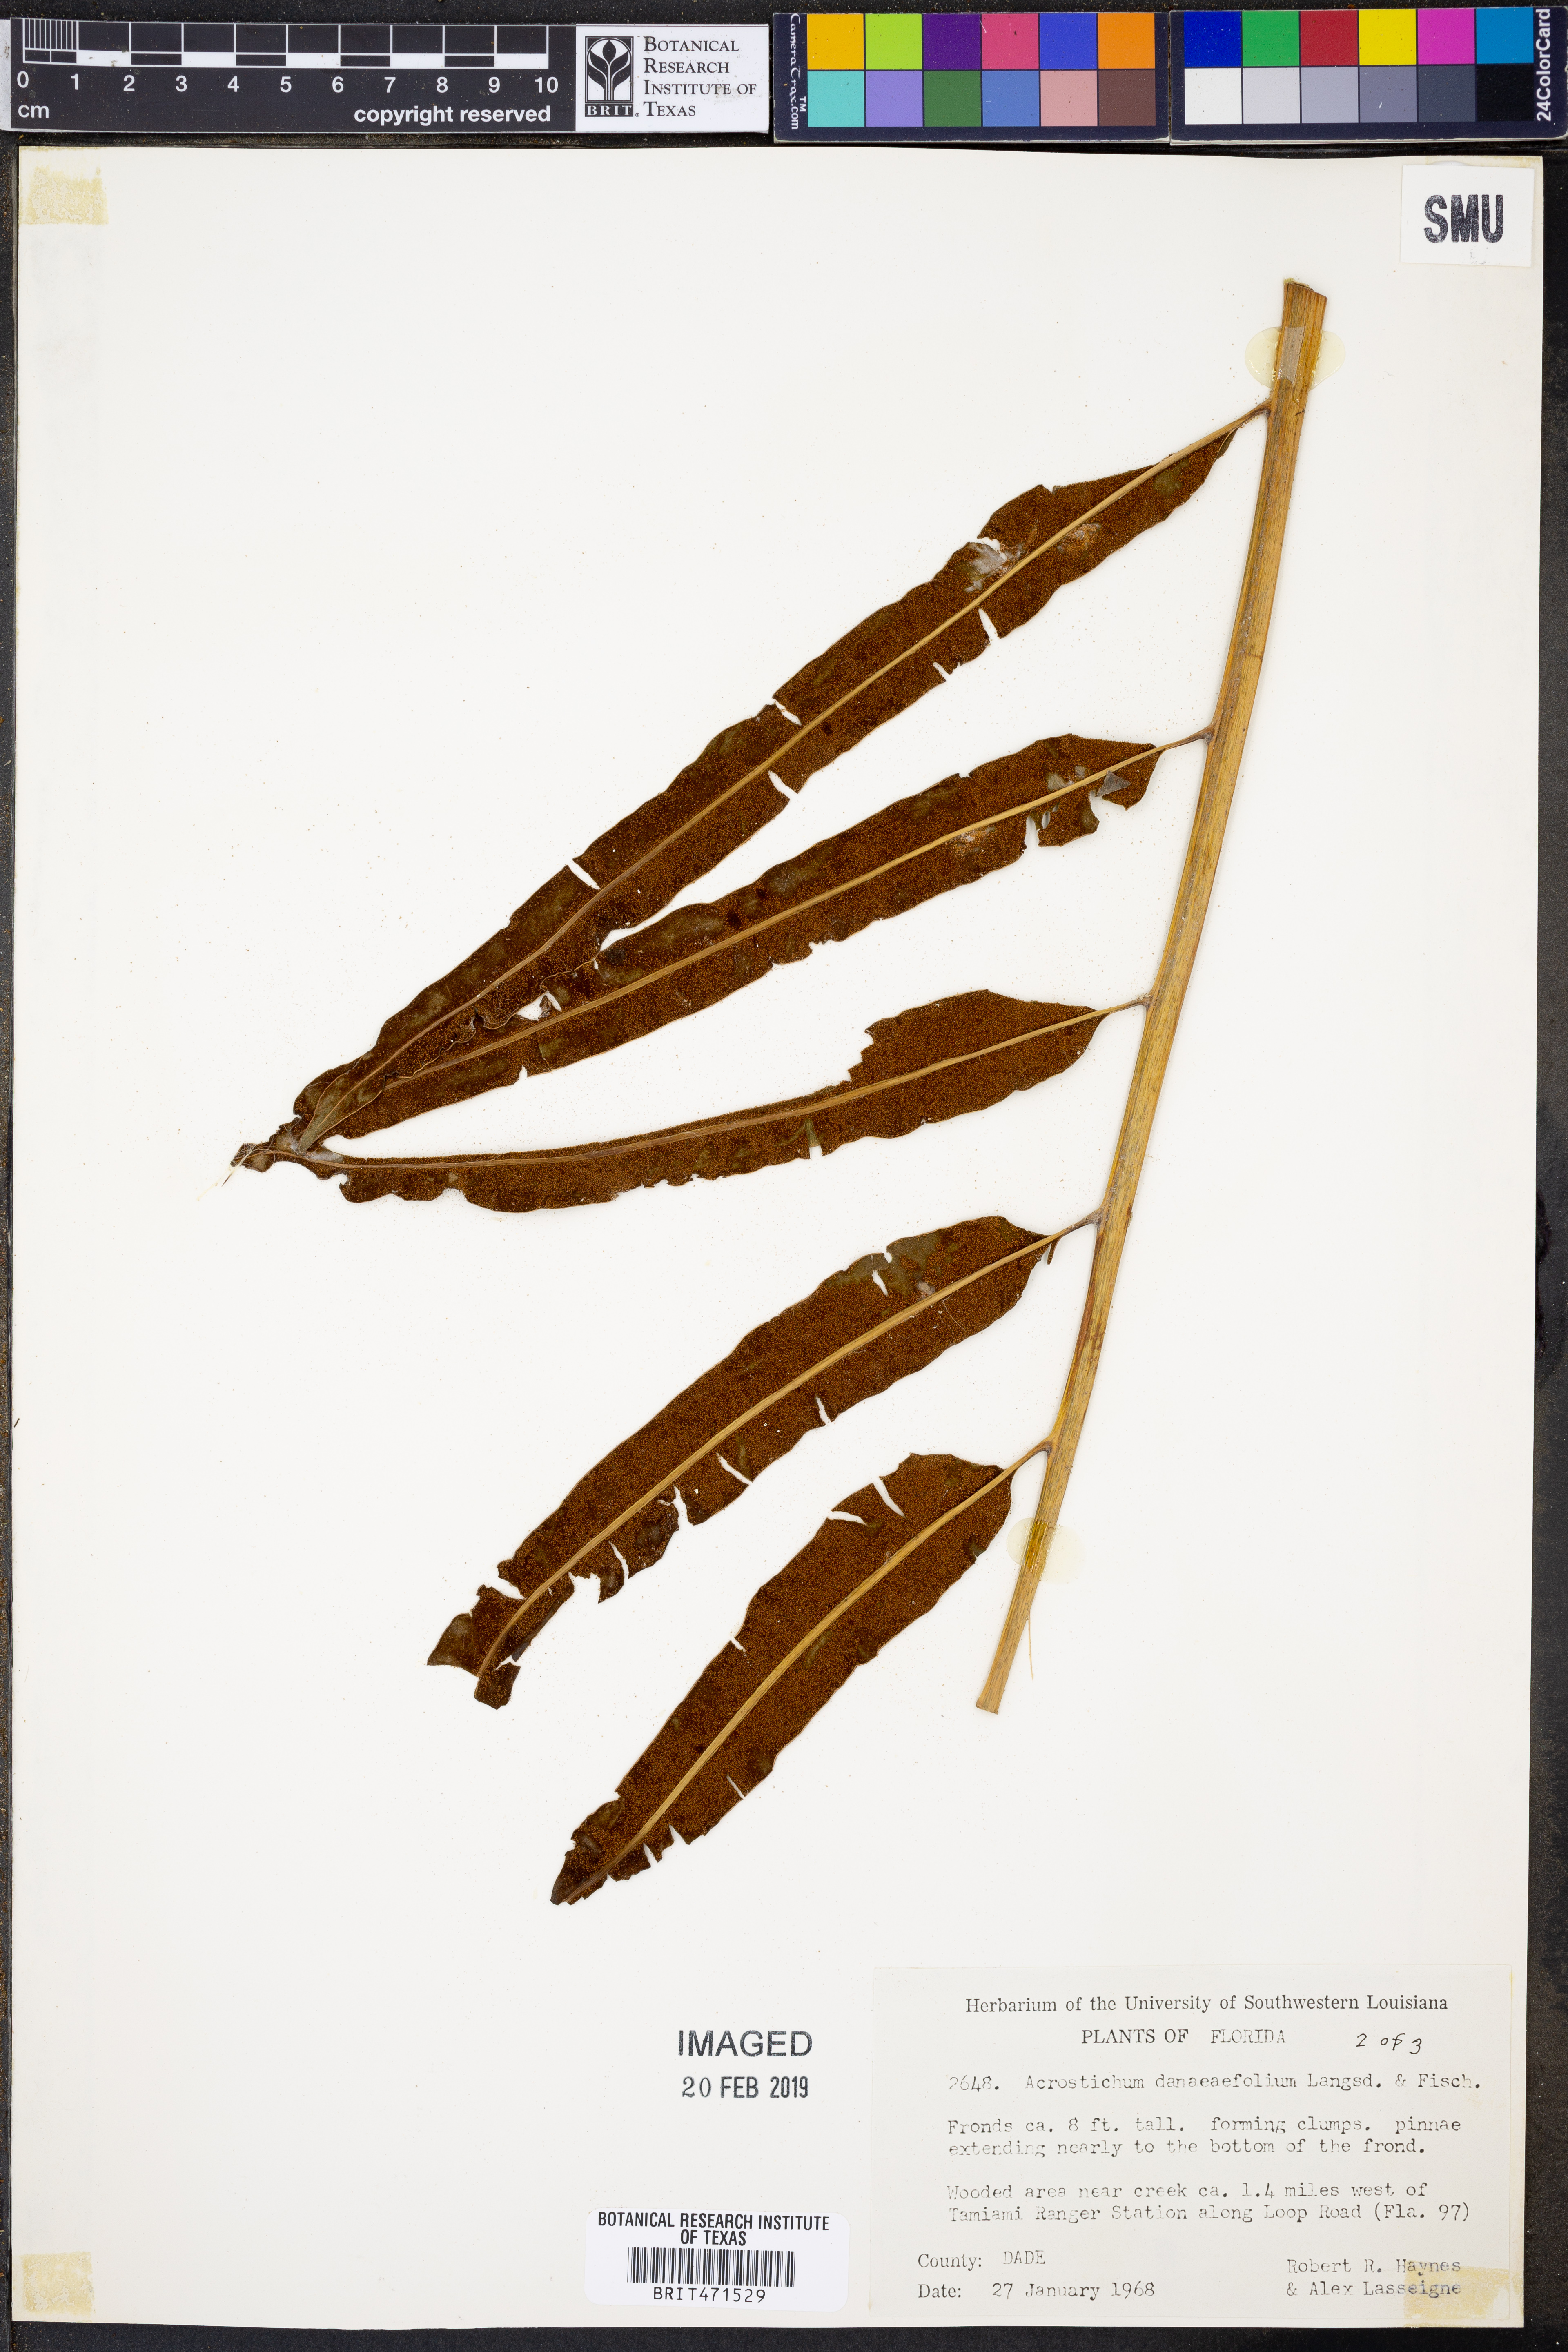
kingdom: Plantae
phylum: Tracheophyta
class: Polypodiopsida
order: Polypodiales
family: Pteridaceae
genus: Acrostichum
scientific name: Acrostichum danaeifolium
